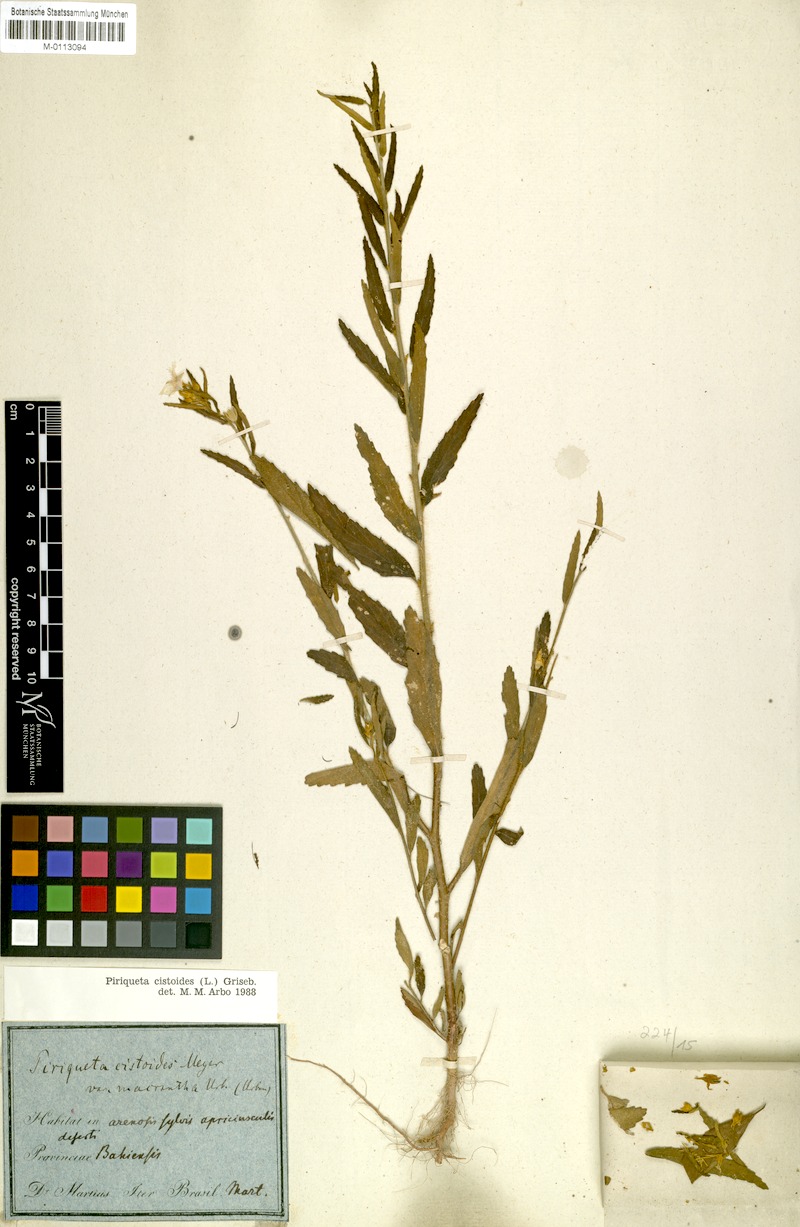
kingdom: Plantae
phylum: Tracheophyta
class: Magnoliopsida
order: Malpighiales
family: Turneraceae
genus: Piriqueta
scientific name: Piriqueta cistoides
